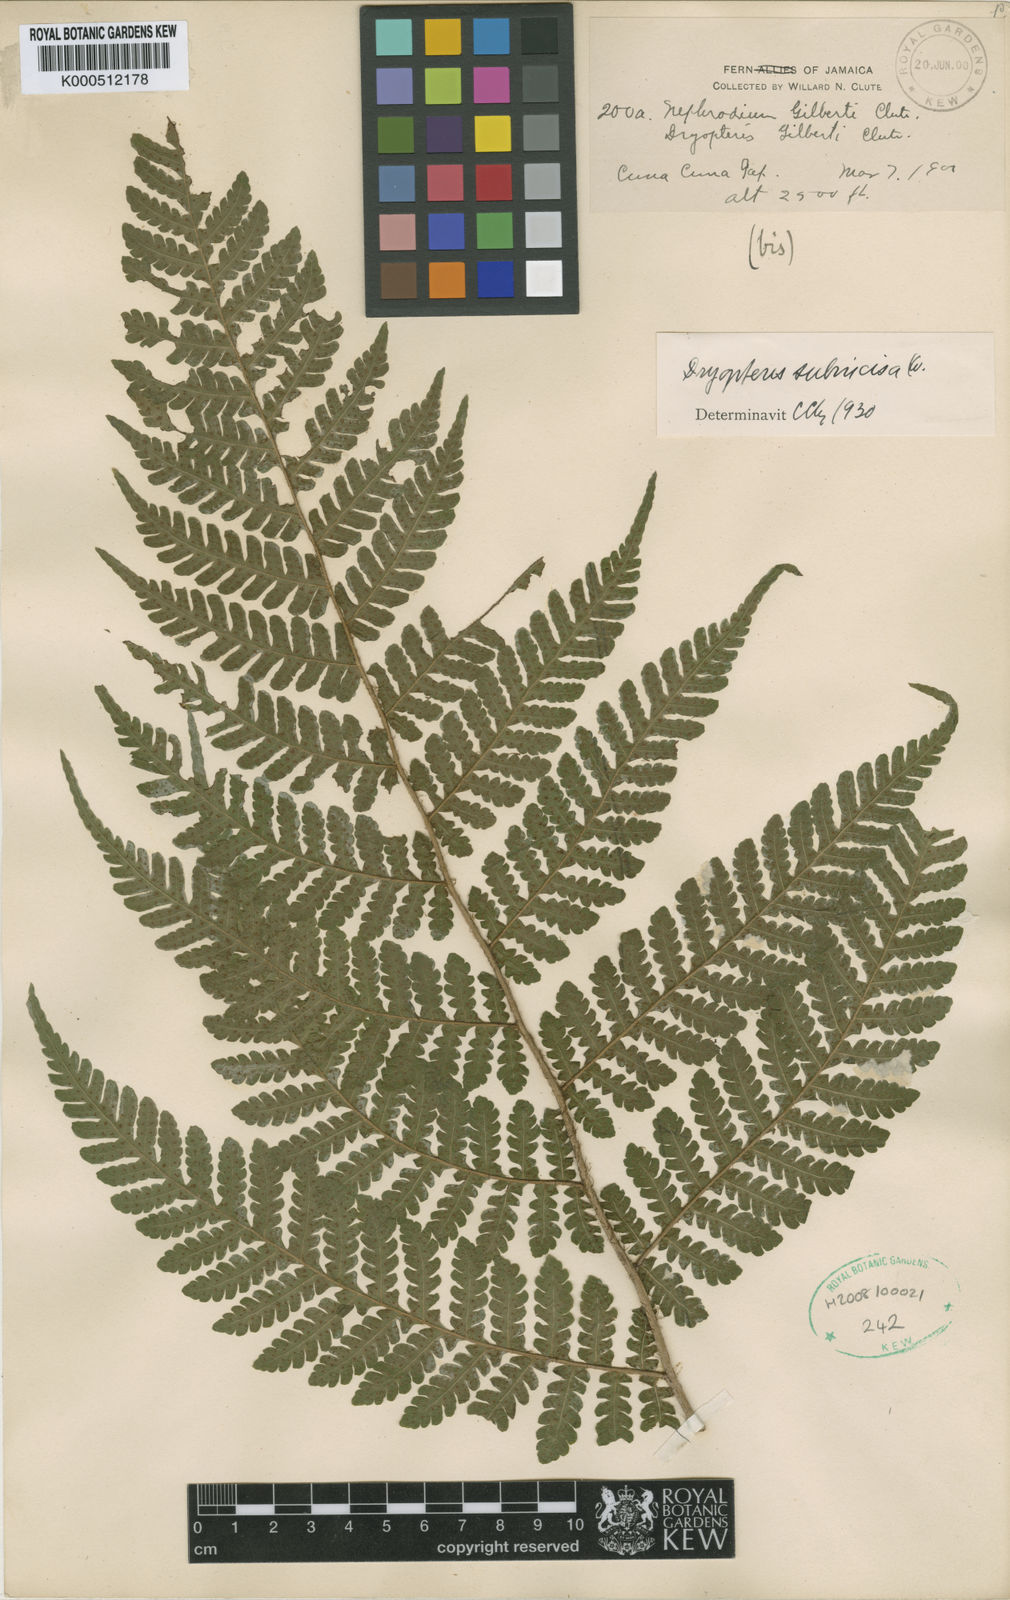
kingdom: Plantae
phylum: Tracheophyta
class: Polypodiopsida
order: Polypodiales
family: Dryopteridaceae
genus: Megalastrum
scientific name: Megalastrum gilbertii
